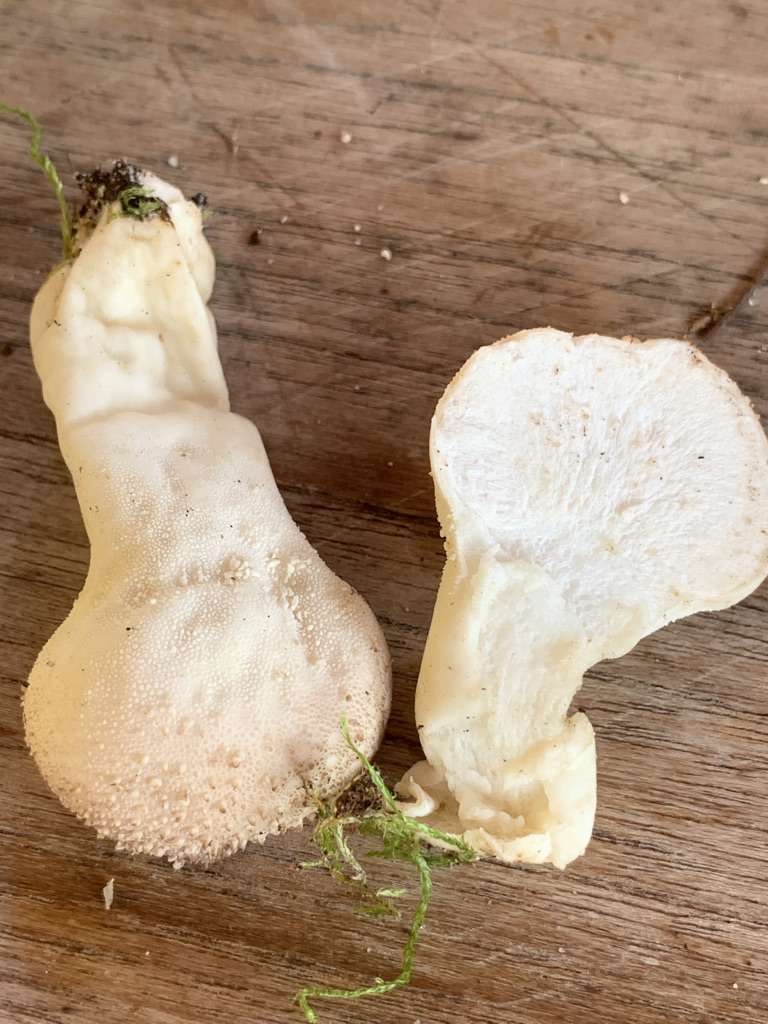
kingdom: Fungi
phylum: Basidiomycota
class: Agaricomycetes
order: Agaricales
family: Lycoperdaceae
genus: Lycoperdon
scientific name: Lycoperdon perlatum
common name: krystal-støvbold
